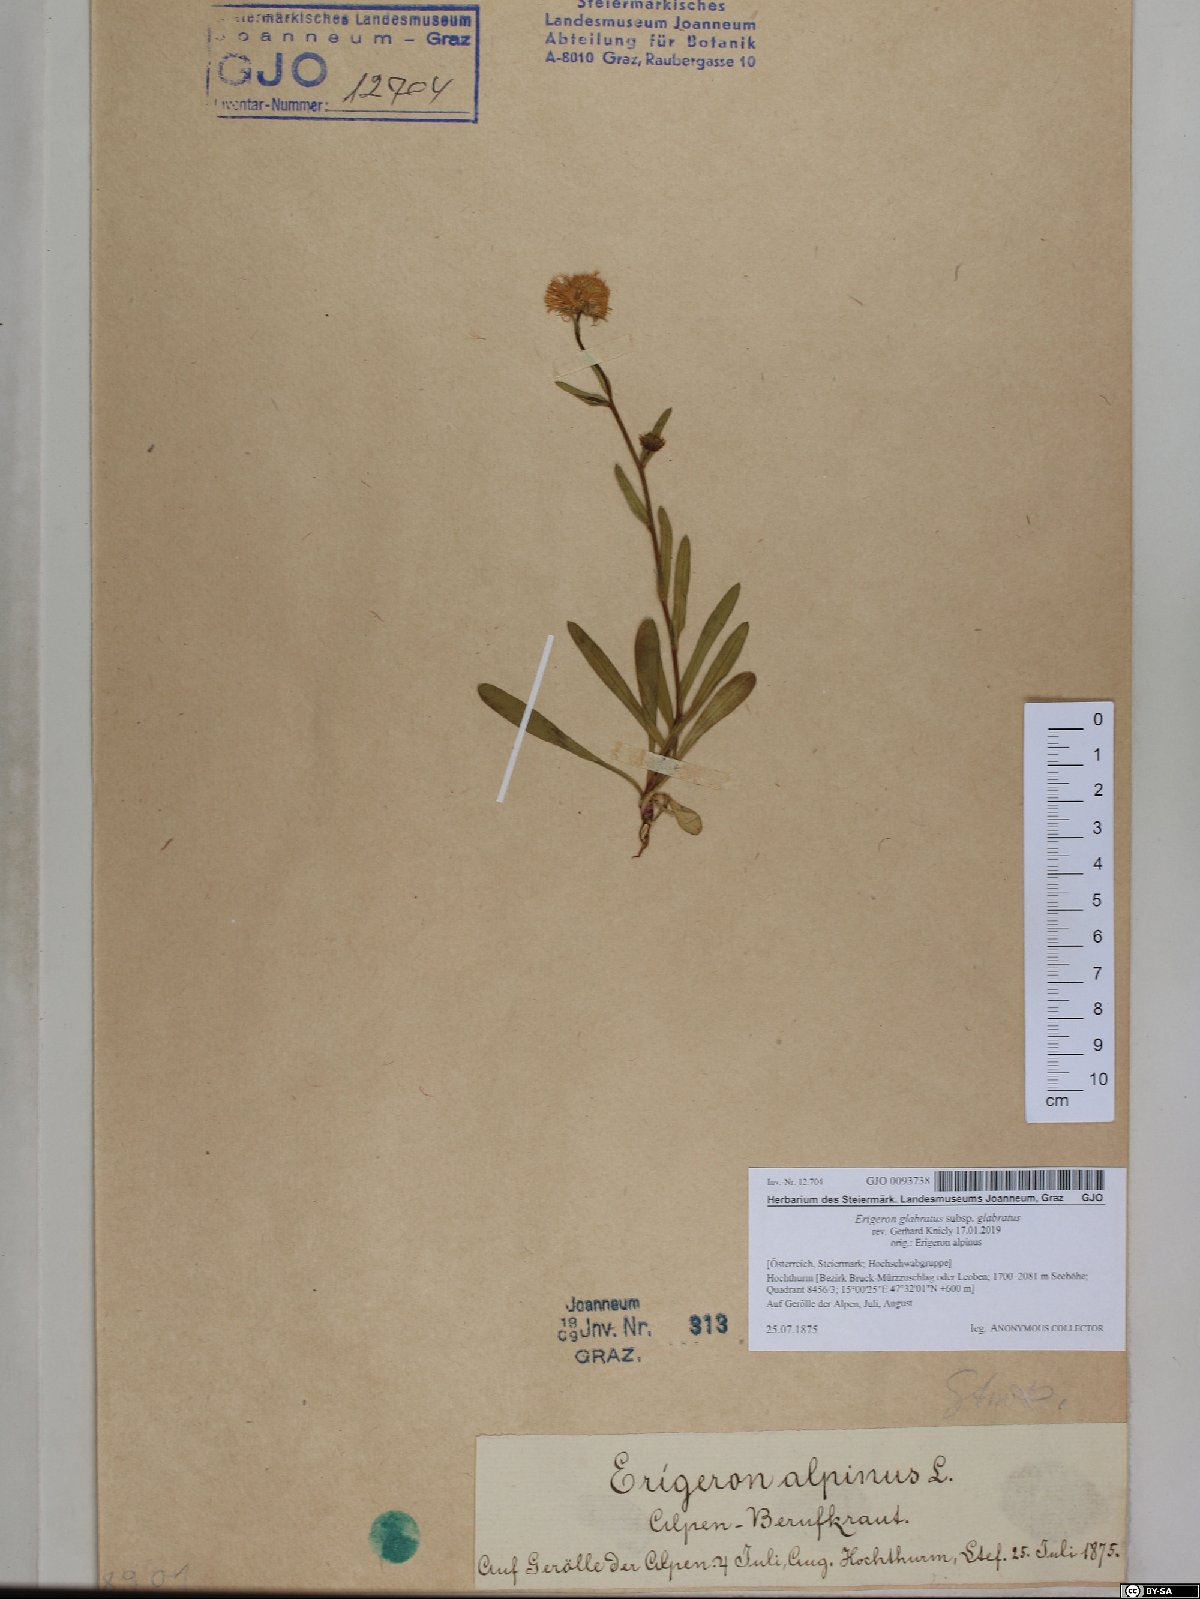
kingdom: Plantae
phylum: Tracheophyta
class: Magnoliopsida
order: Asterales
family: Asteraceae
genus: Erigeron
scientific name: Erigeron glabratus
